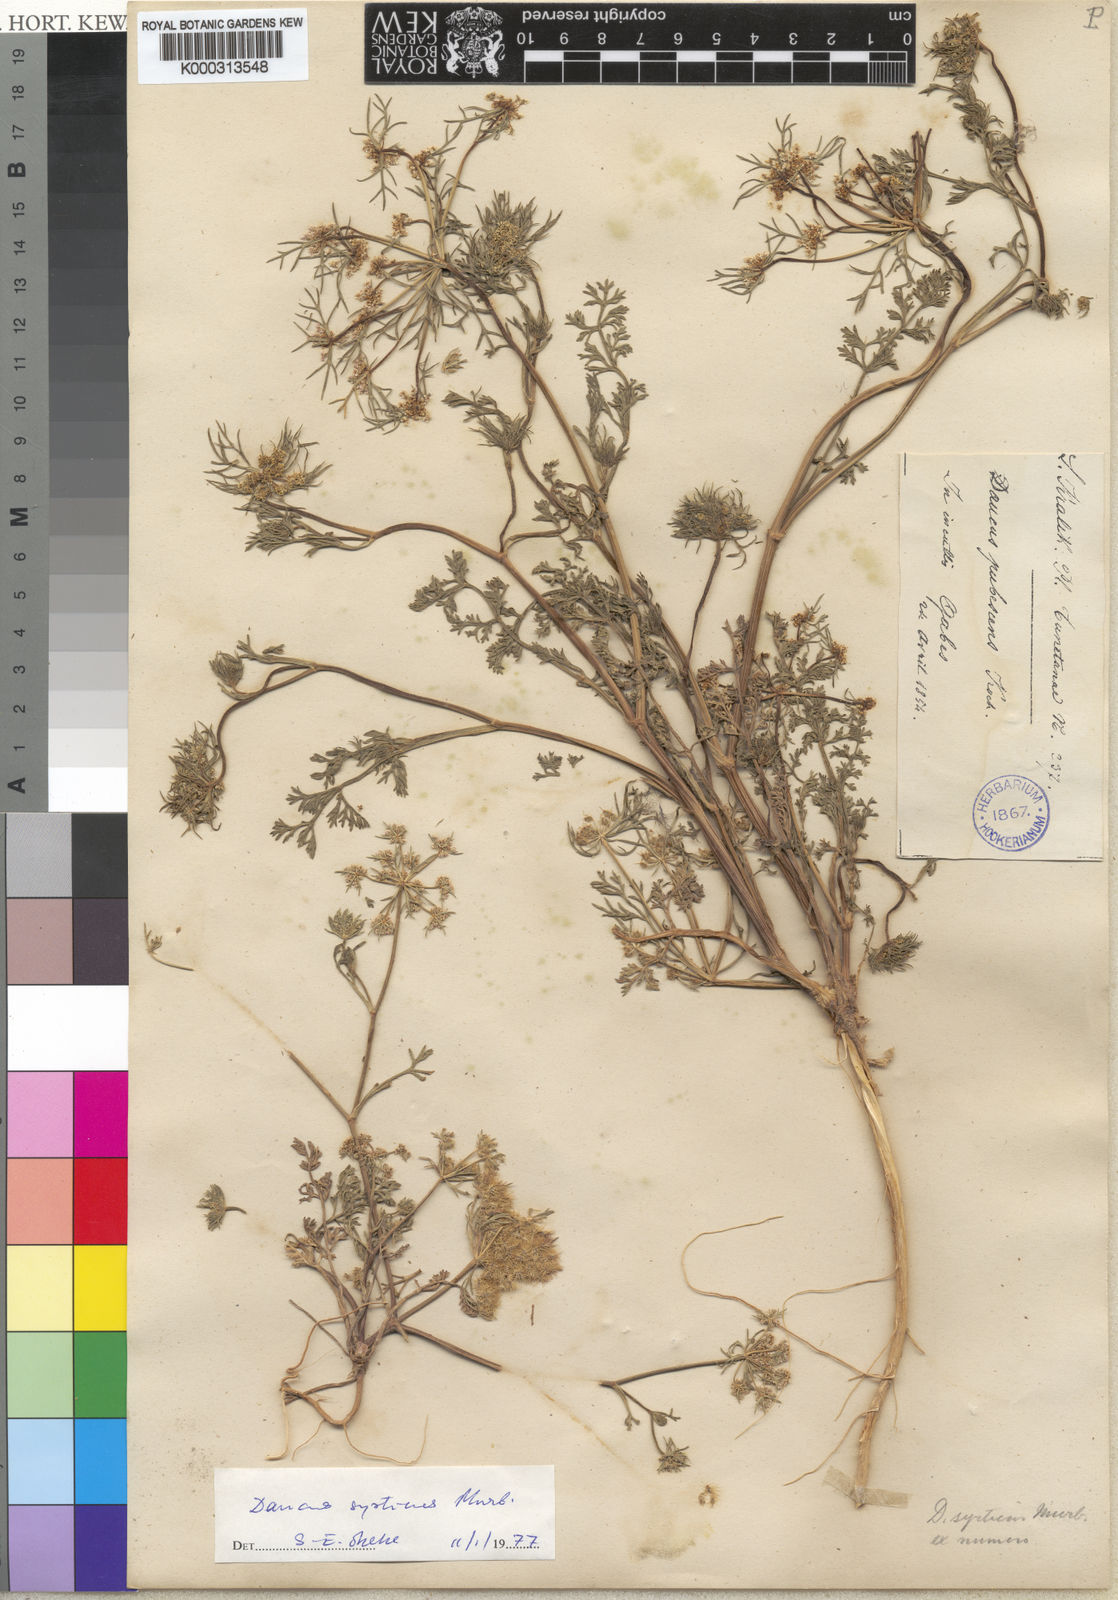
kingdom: Plantae
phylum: Tracheophyta
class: Magnoliopsida
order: Apiales
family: Apiaceae
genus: Daucus
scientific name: Daucus syrticus
